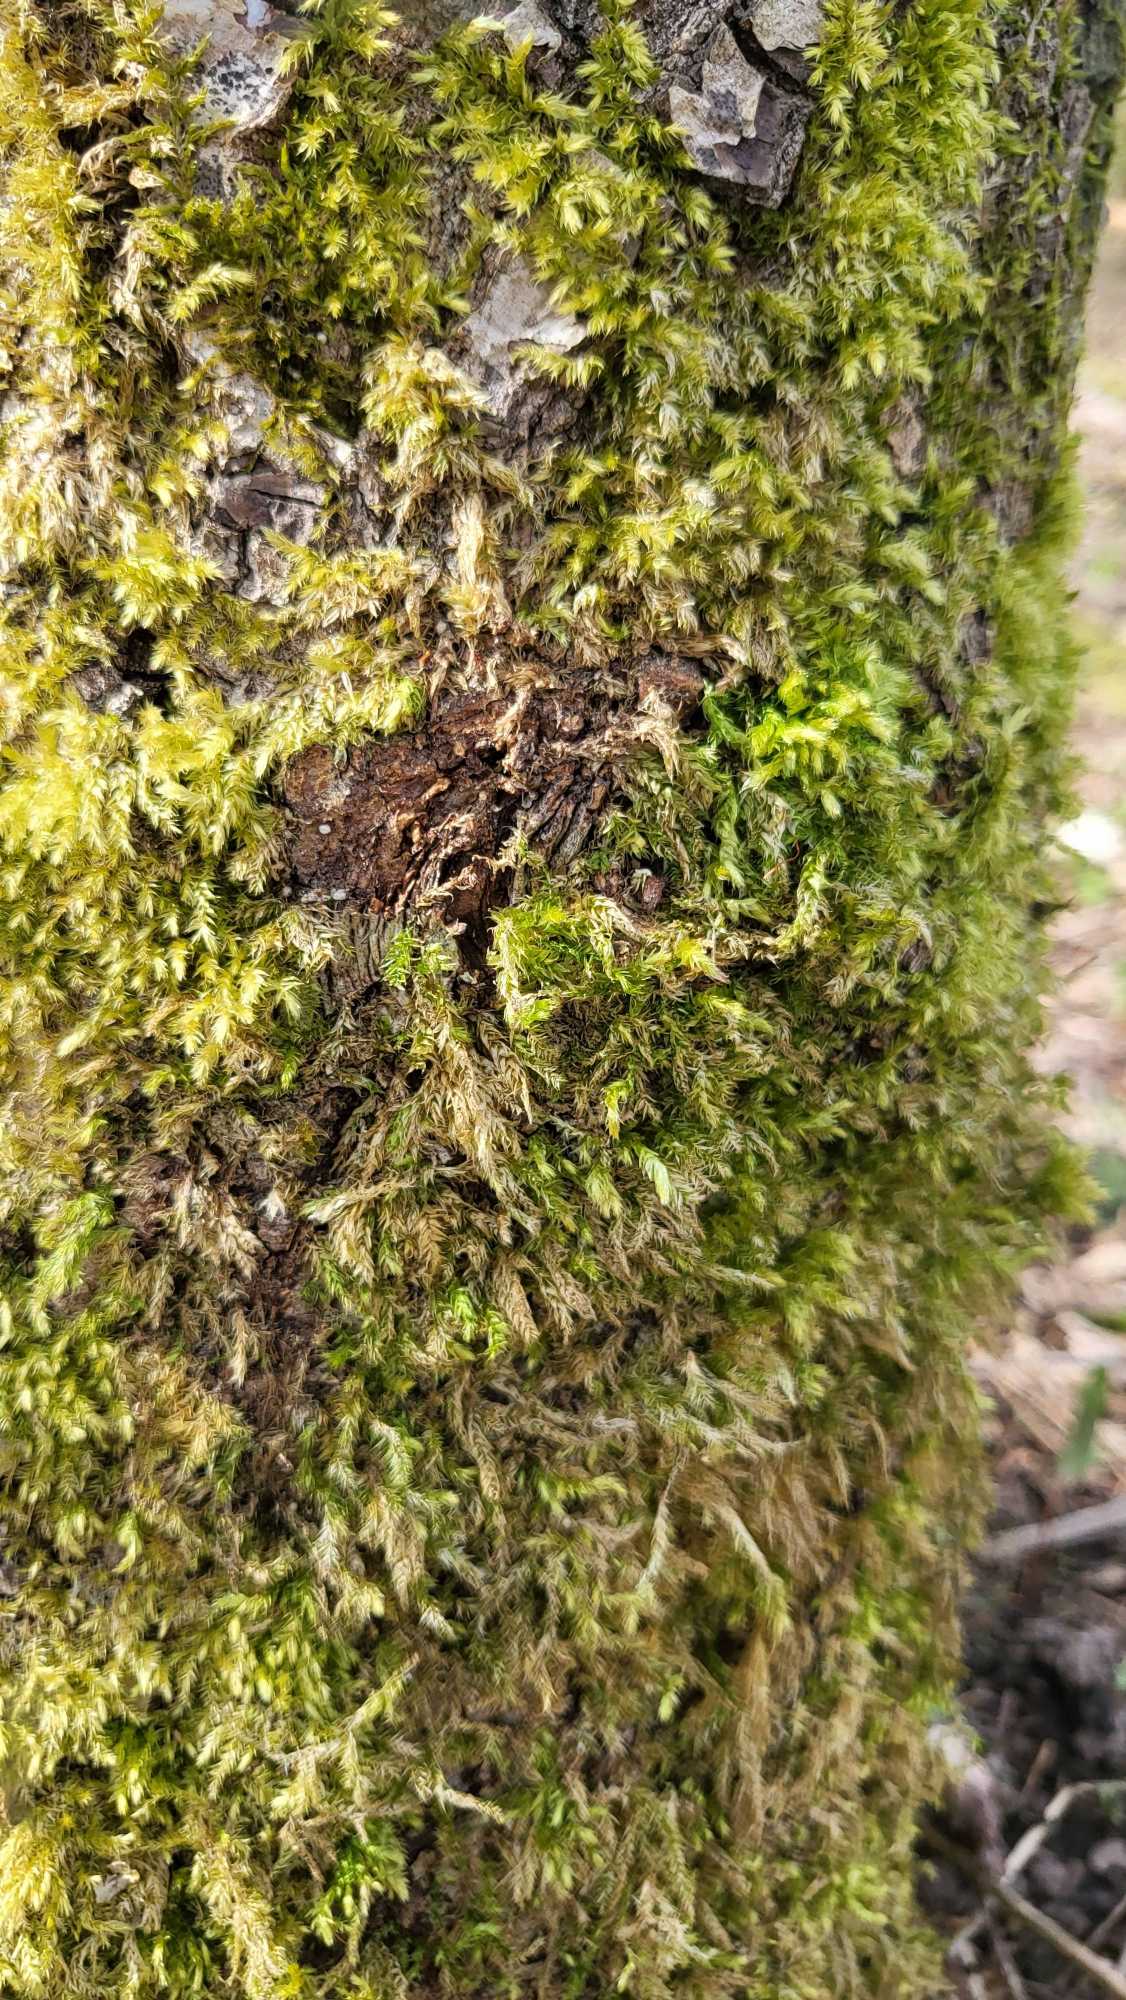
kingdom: Plantae
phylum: Bryophyta
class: Bryopsida
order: Hypnales
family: Brachytheciaceae
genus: Brachythecium
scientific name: Brachythecium rutabulum
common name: Almindelig kortkapsel
